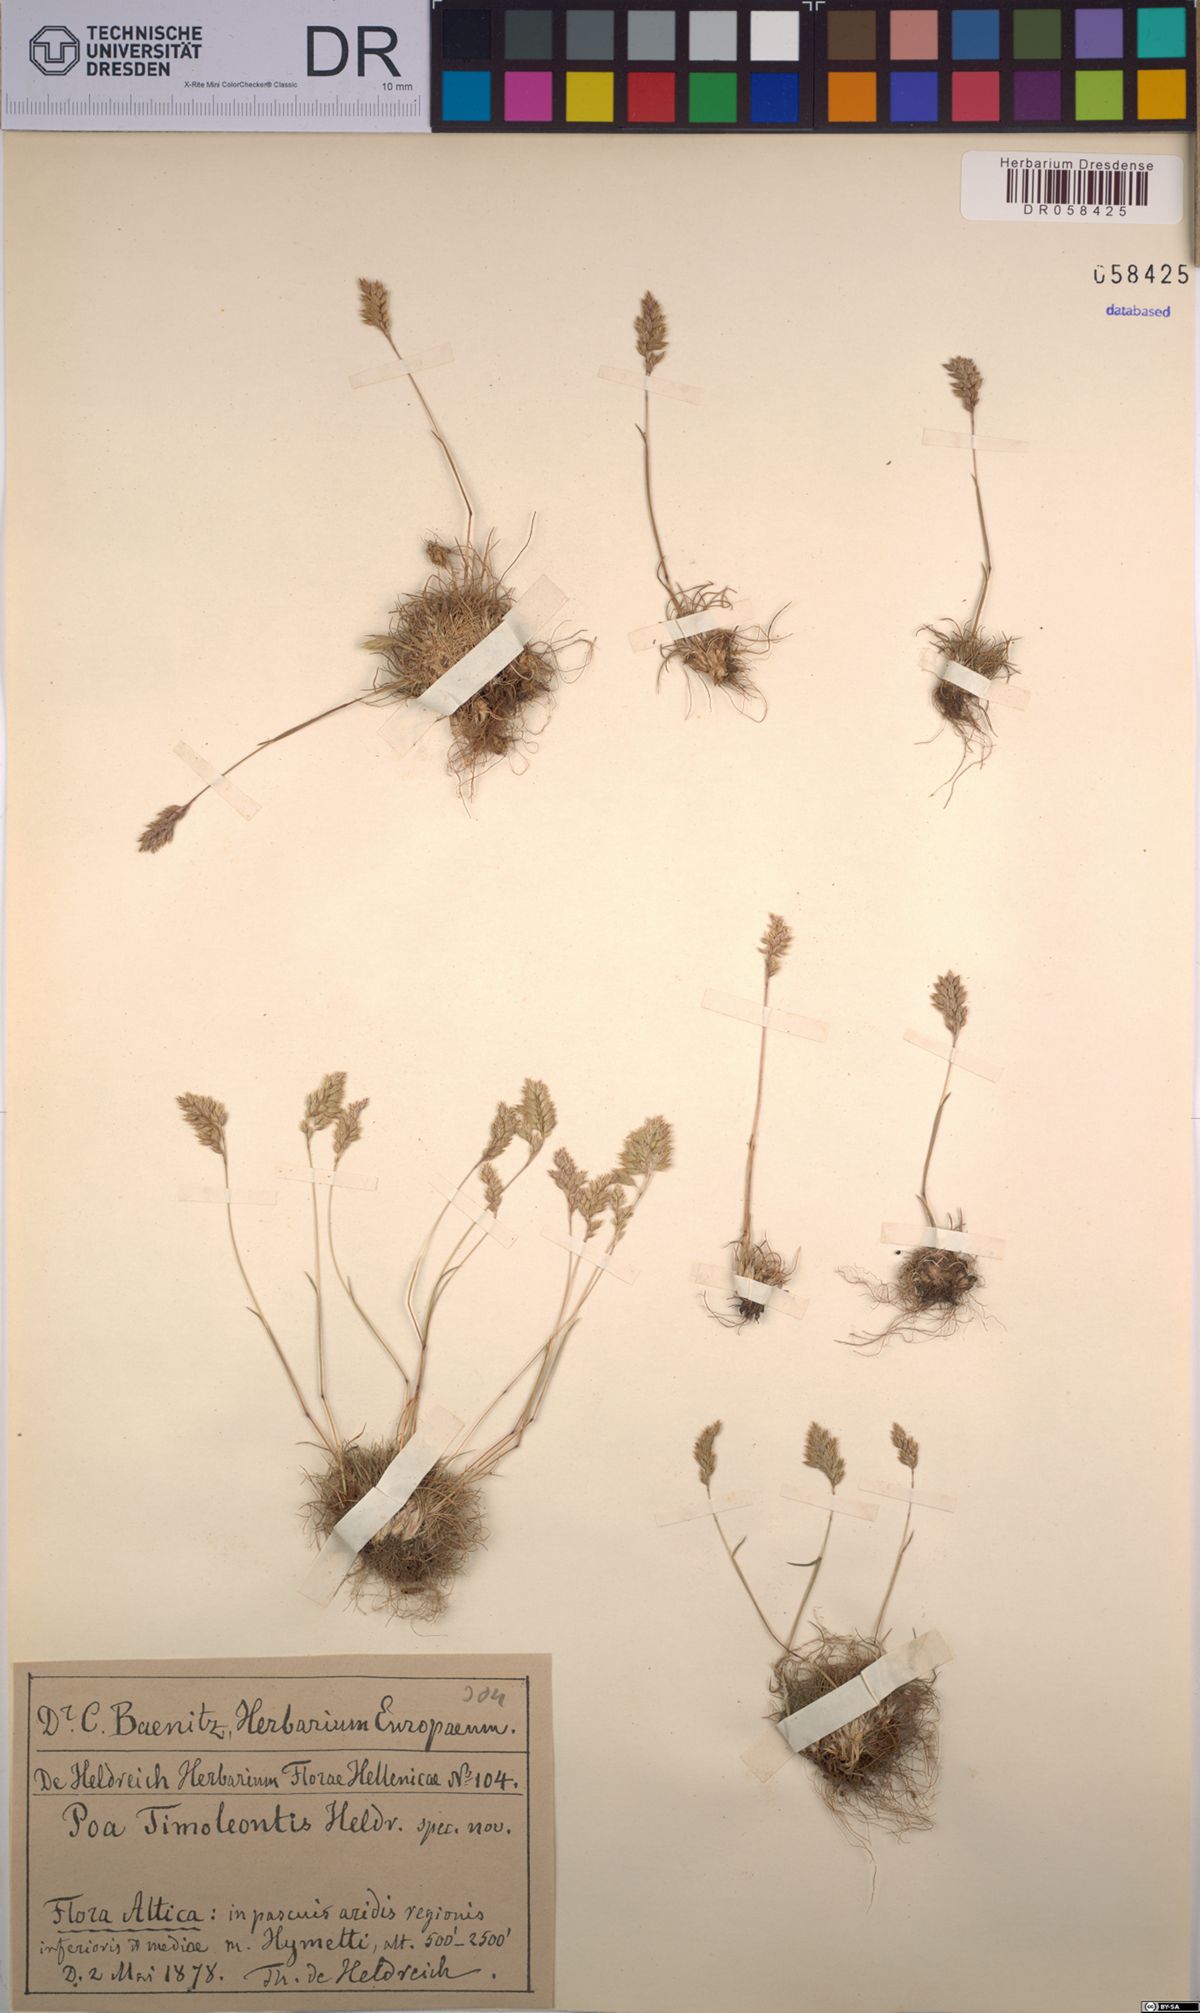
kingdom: Plantae
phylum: Tracheophyta
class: Liliopsida
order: Poales
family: Poaceae
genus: Poa
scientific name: Poa timoleontis
